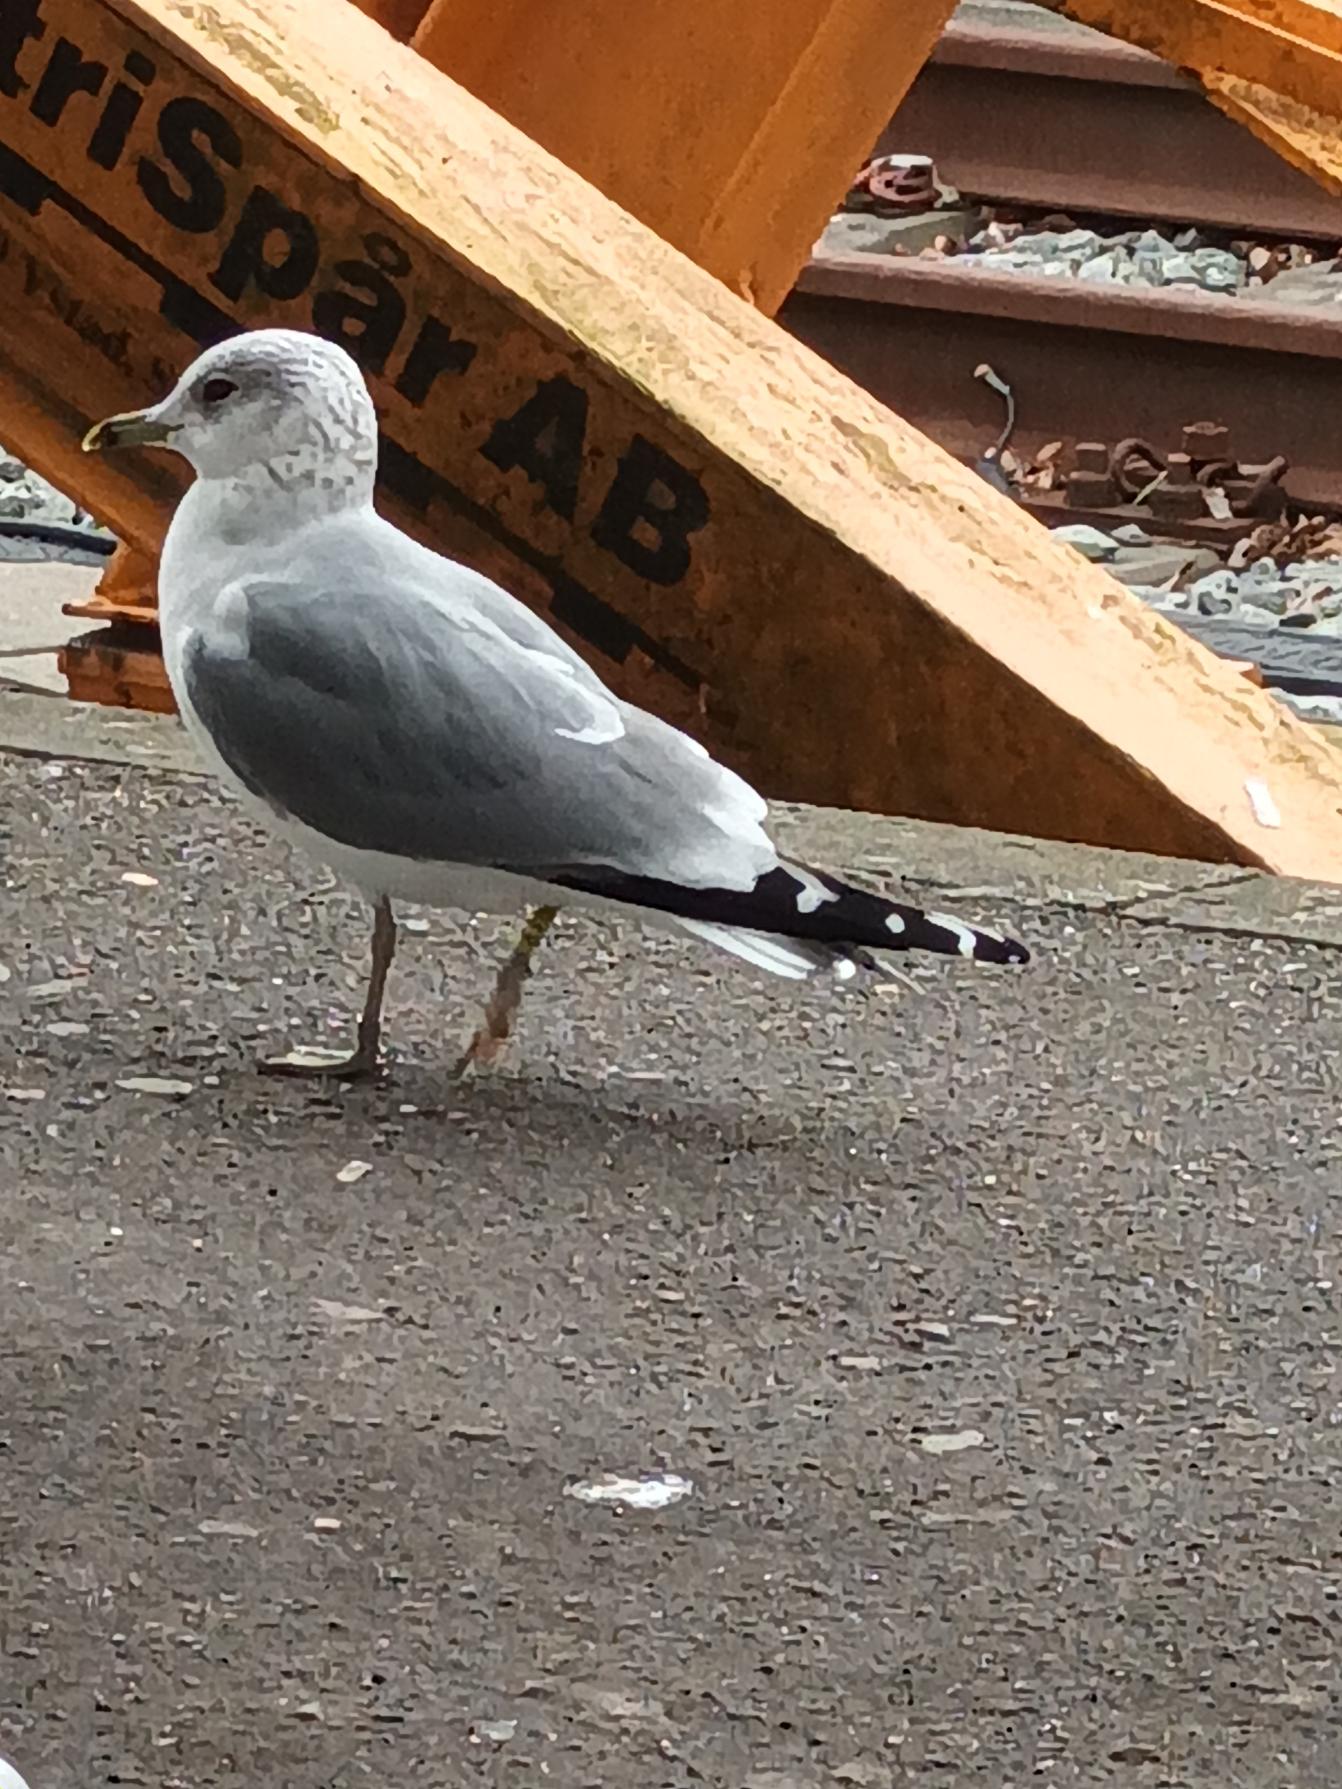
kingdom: Animalia
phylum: Chordata
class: Aves
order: Charadriiformes
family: Laridae
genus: Larus
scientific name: Larus canus
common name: Stormmåge
